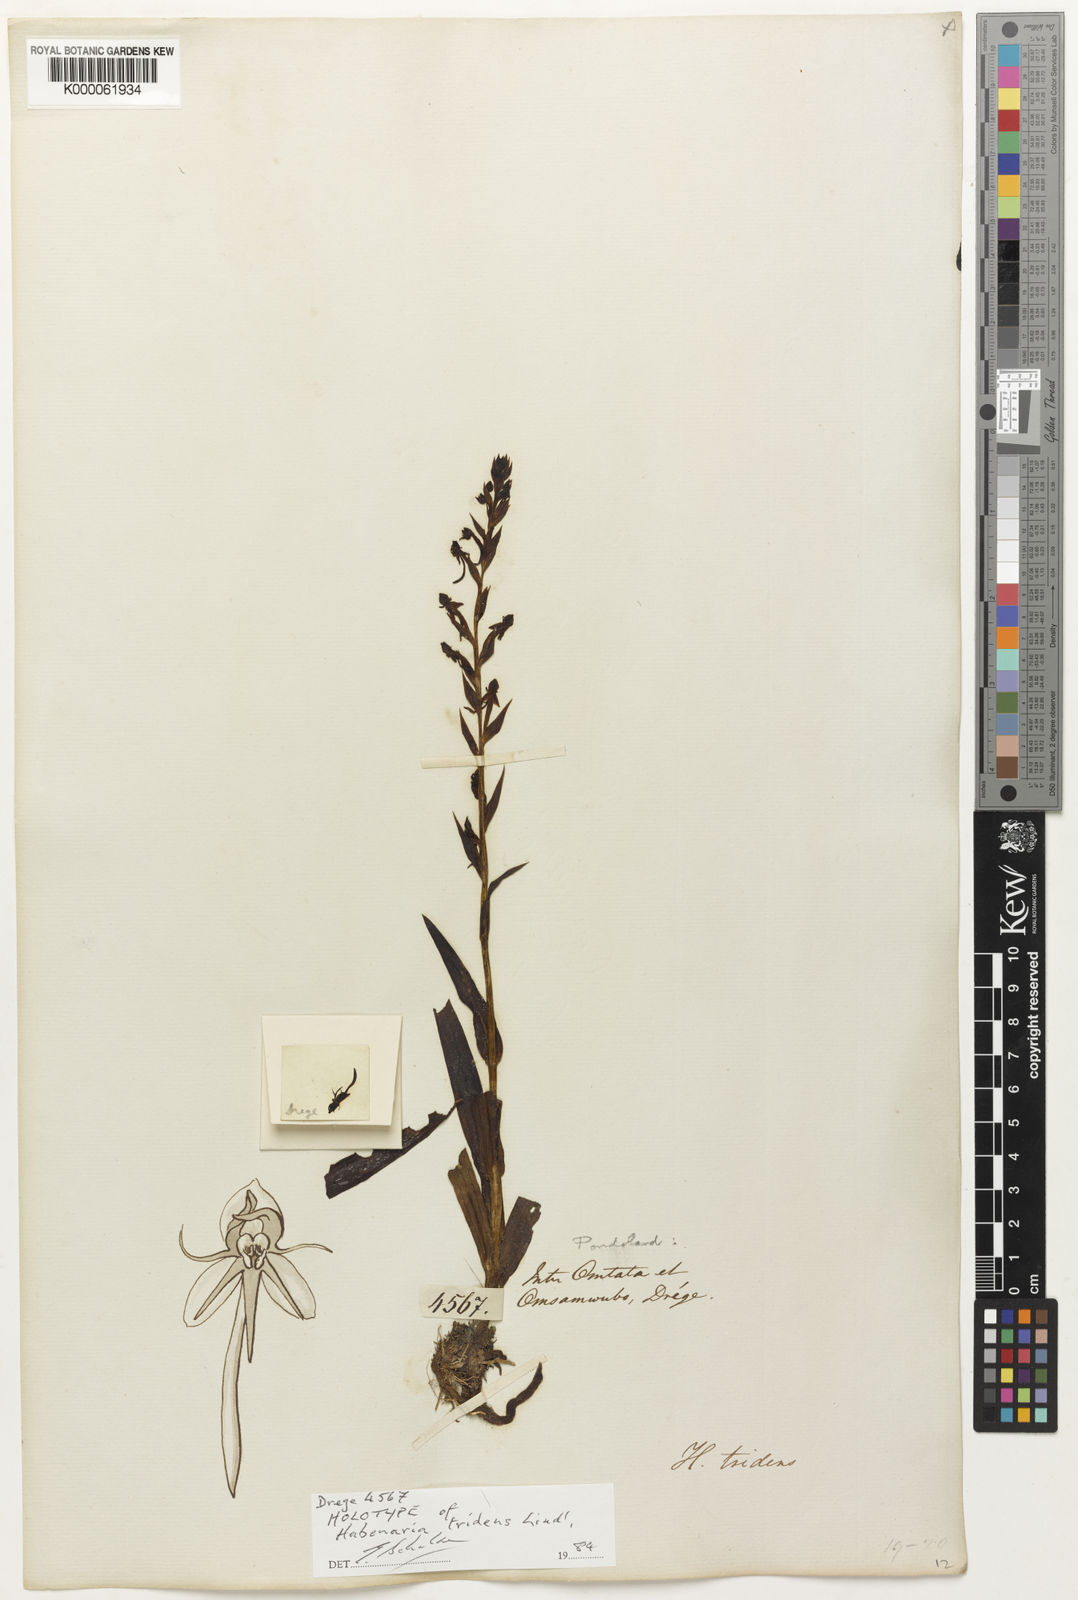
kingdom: Plantae
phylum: Tracheophyta
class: Liliopsida
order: Asparagales
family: Orchidaceae
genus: Habenaria
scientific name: Habenaria tridens
